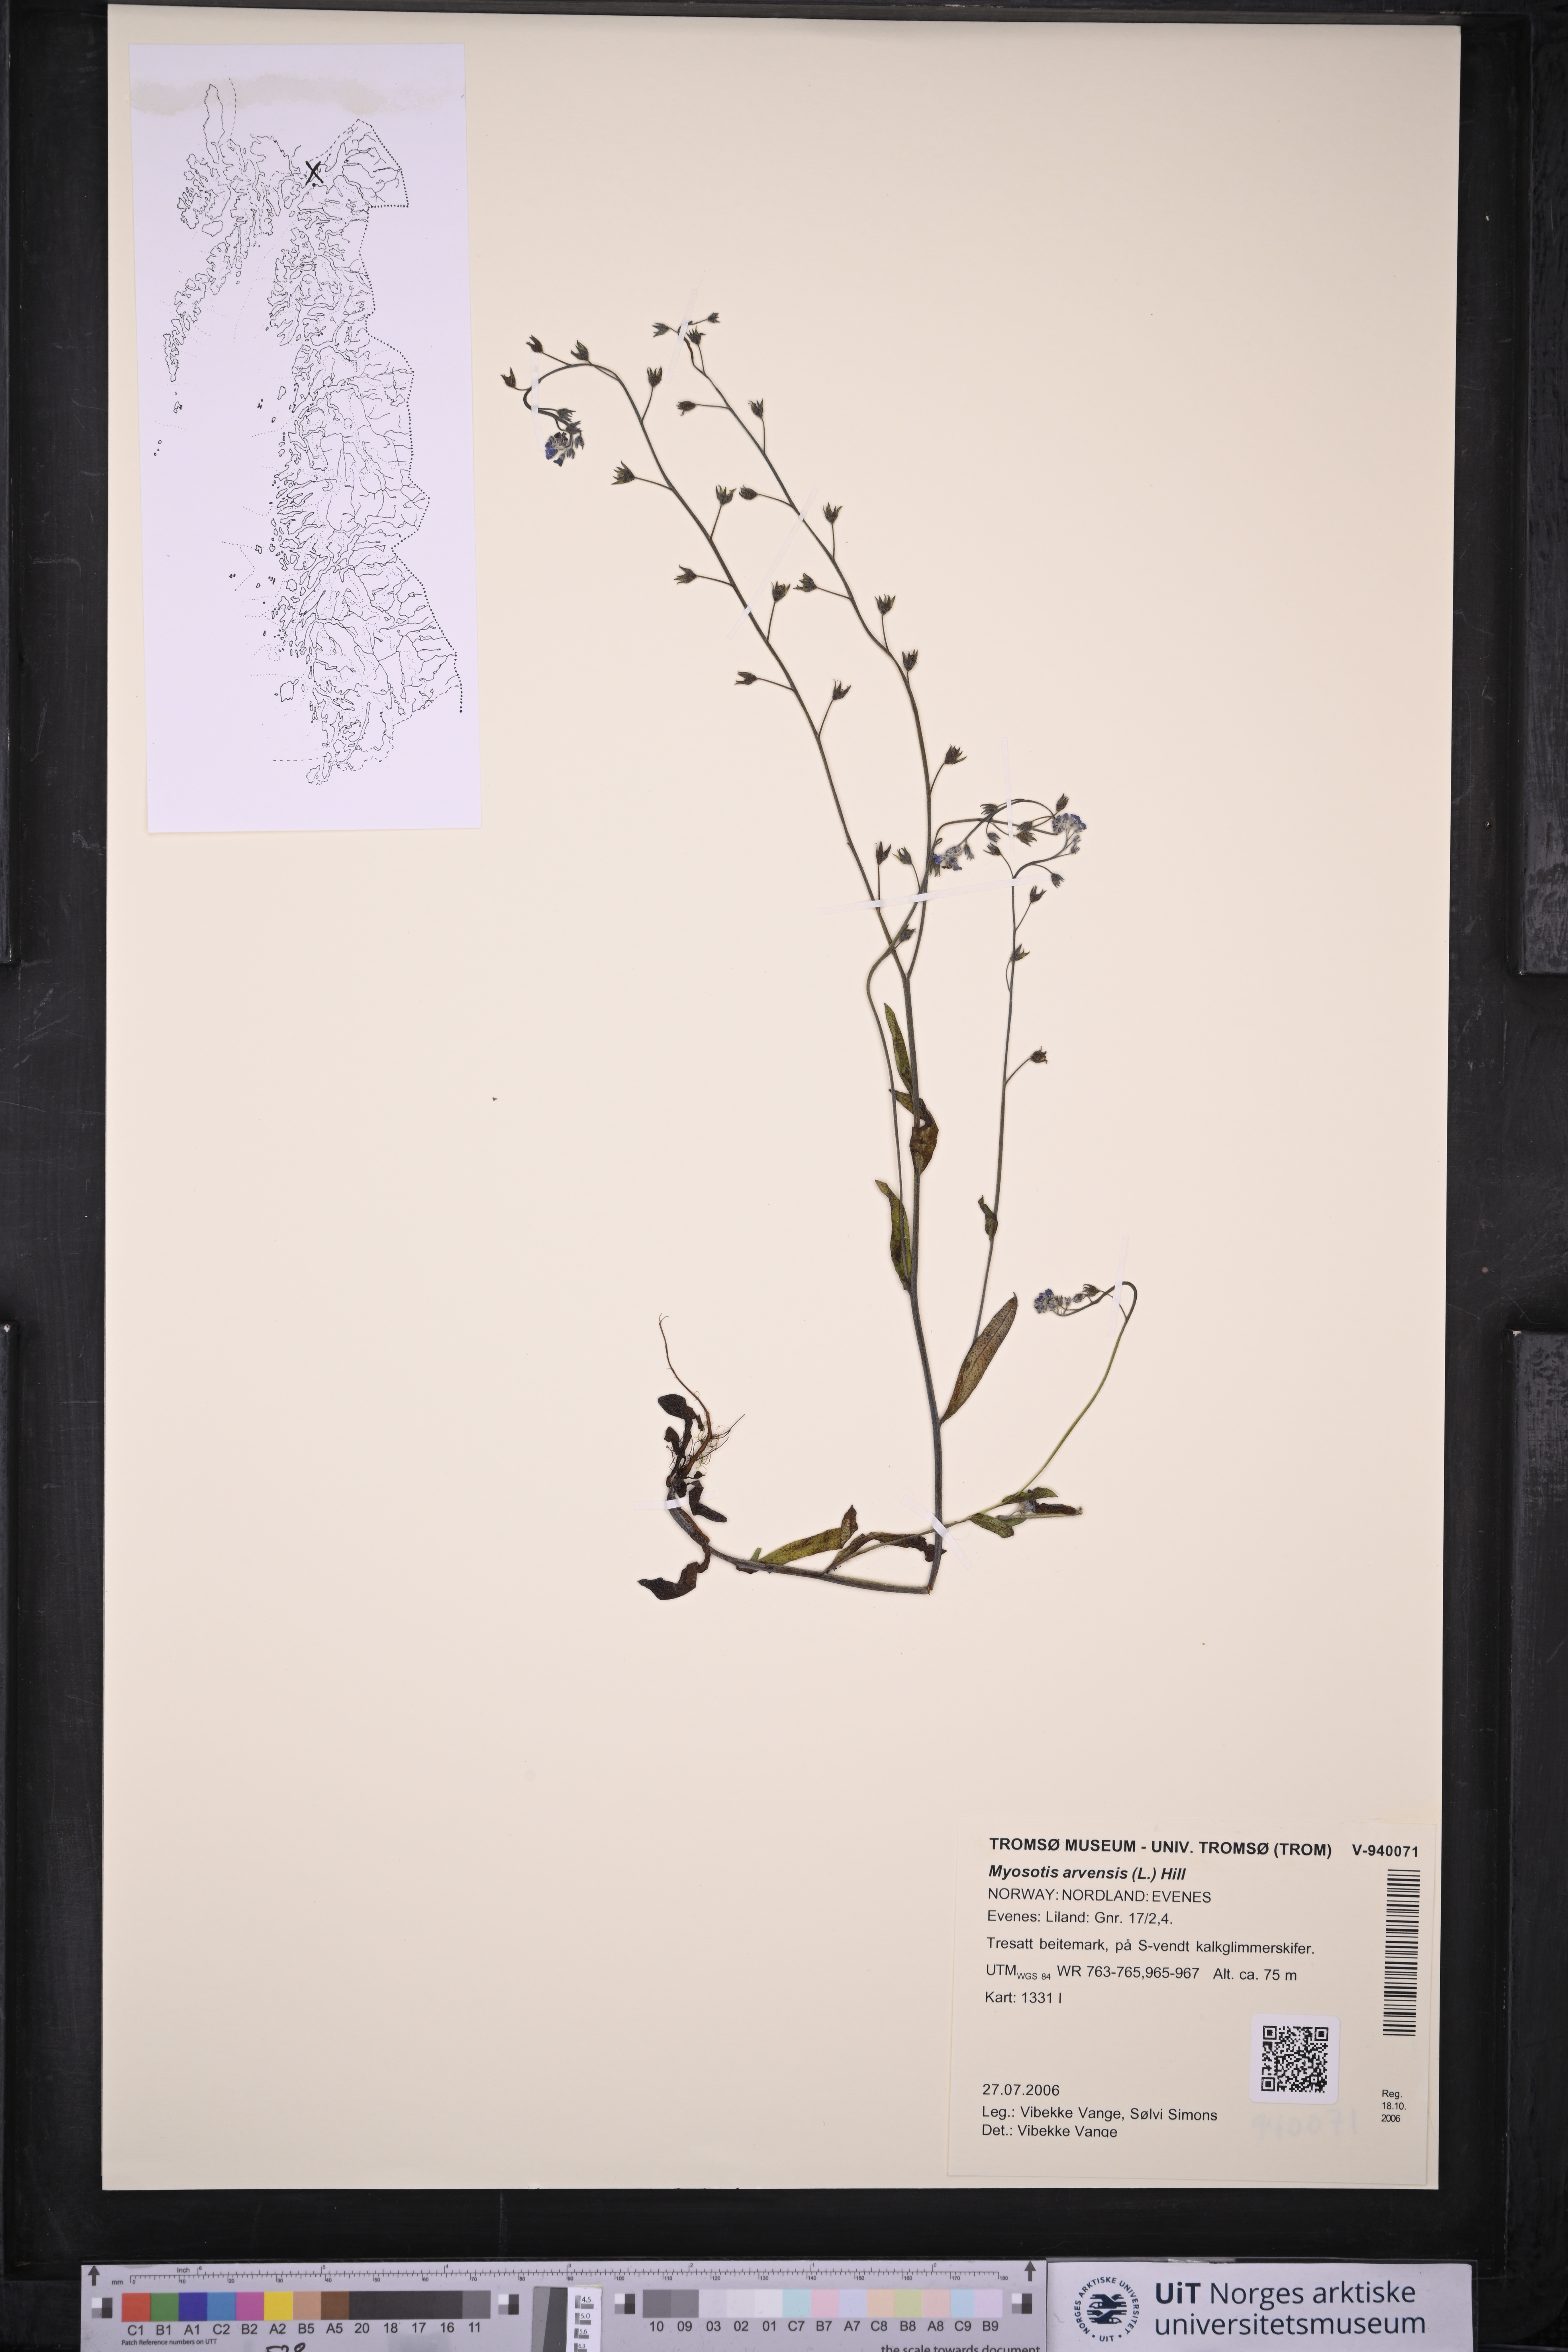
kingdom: Plantae
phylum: Tracheophyta
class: Magnoliopsida
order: Boraginales
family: Boraginaceae
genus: Myosotis
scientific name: Myosotis arvensis
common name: Field forget-me-not
